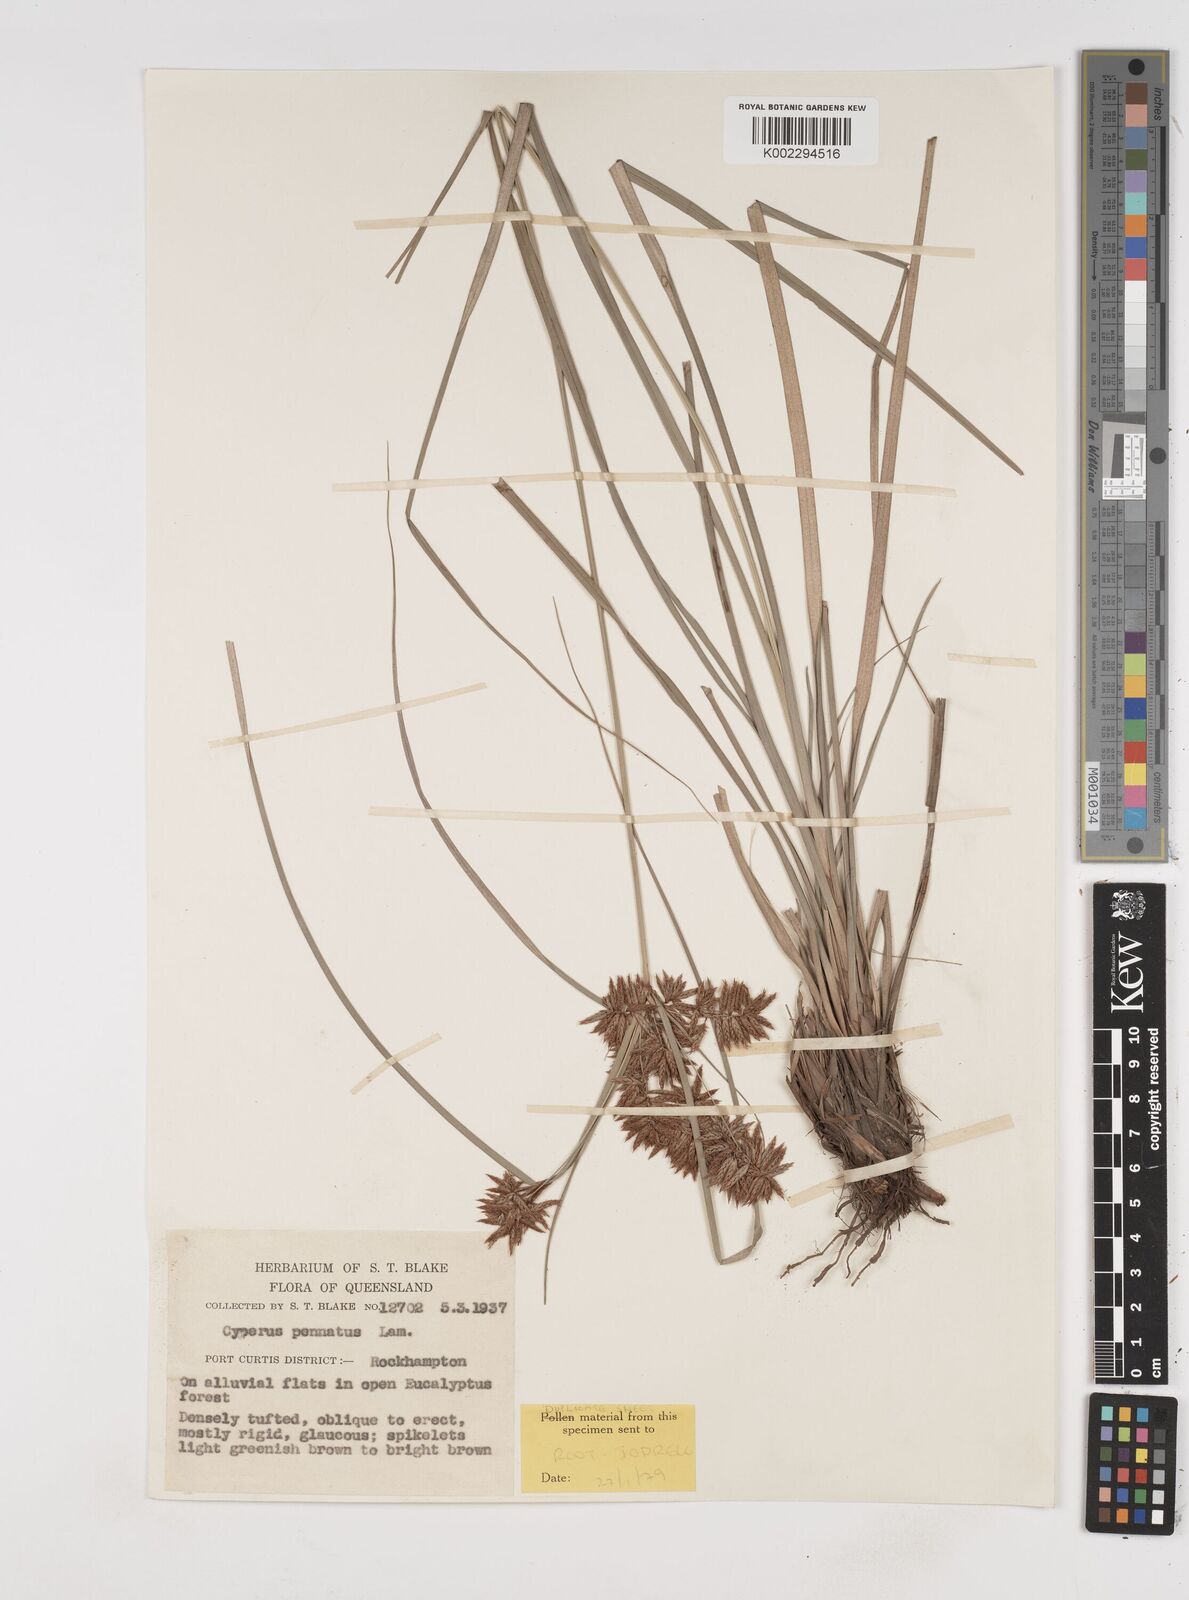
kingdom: Plantae
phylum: Tracheophyta
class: Liliopsida
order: Poales
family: Cyperaceae
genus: Cyperus
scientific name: Cyperus javanicus
